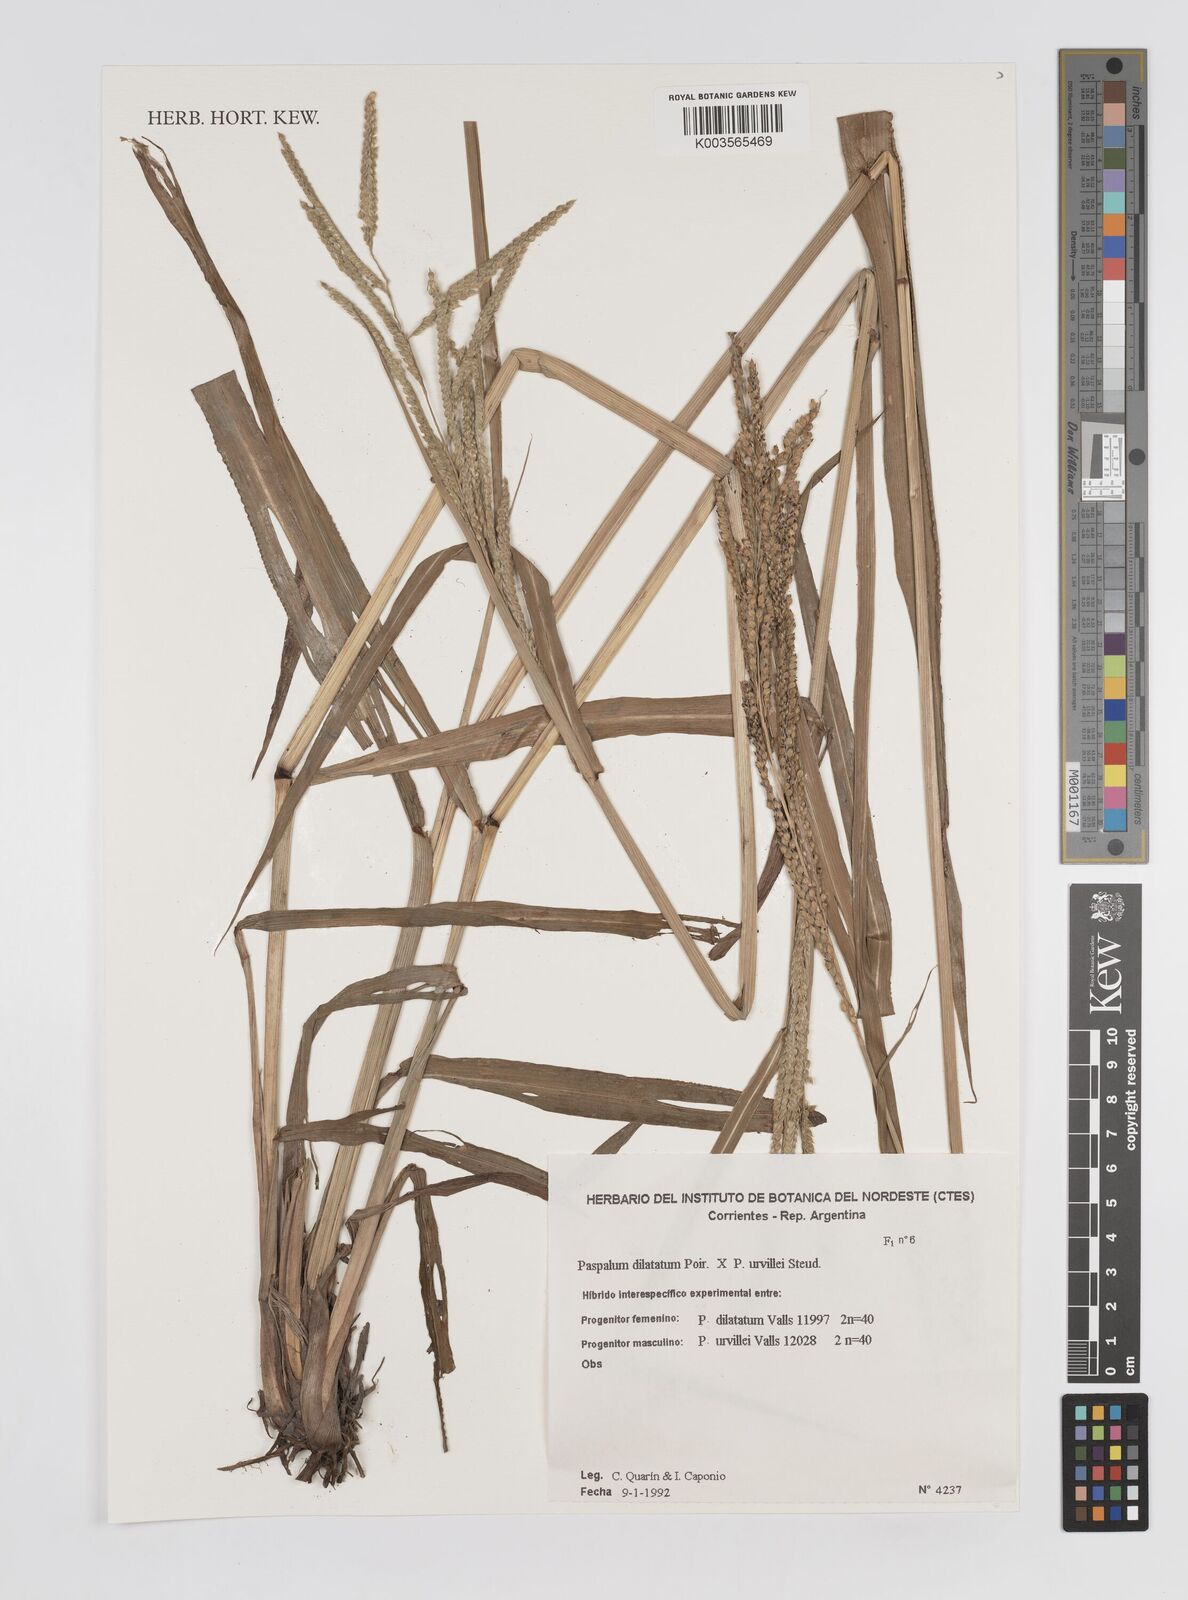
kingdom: Plantae
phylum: Tracheophyta
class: Liliopsida
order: Poales
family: Poaceae
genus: Paspalum
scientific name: Paspalum dilatatum
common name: Dallisgrass
